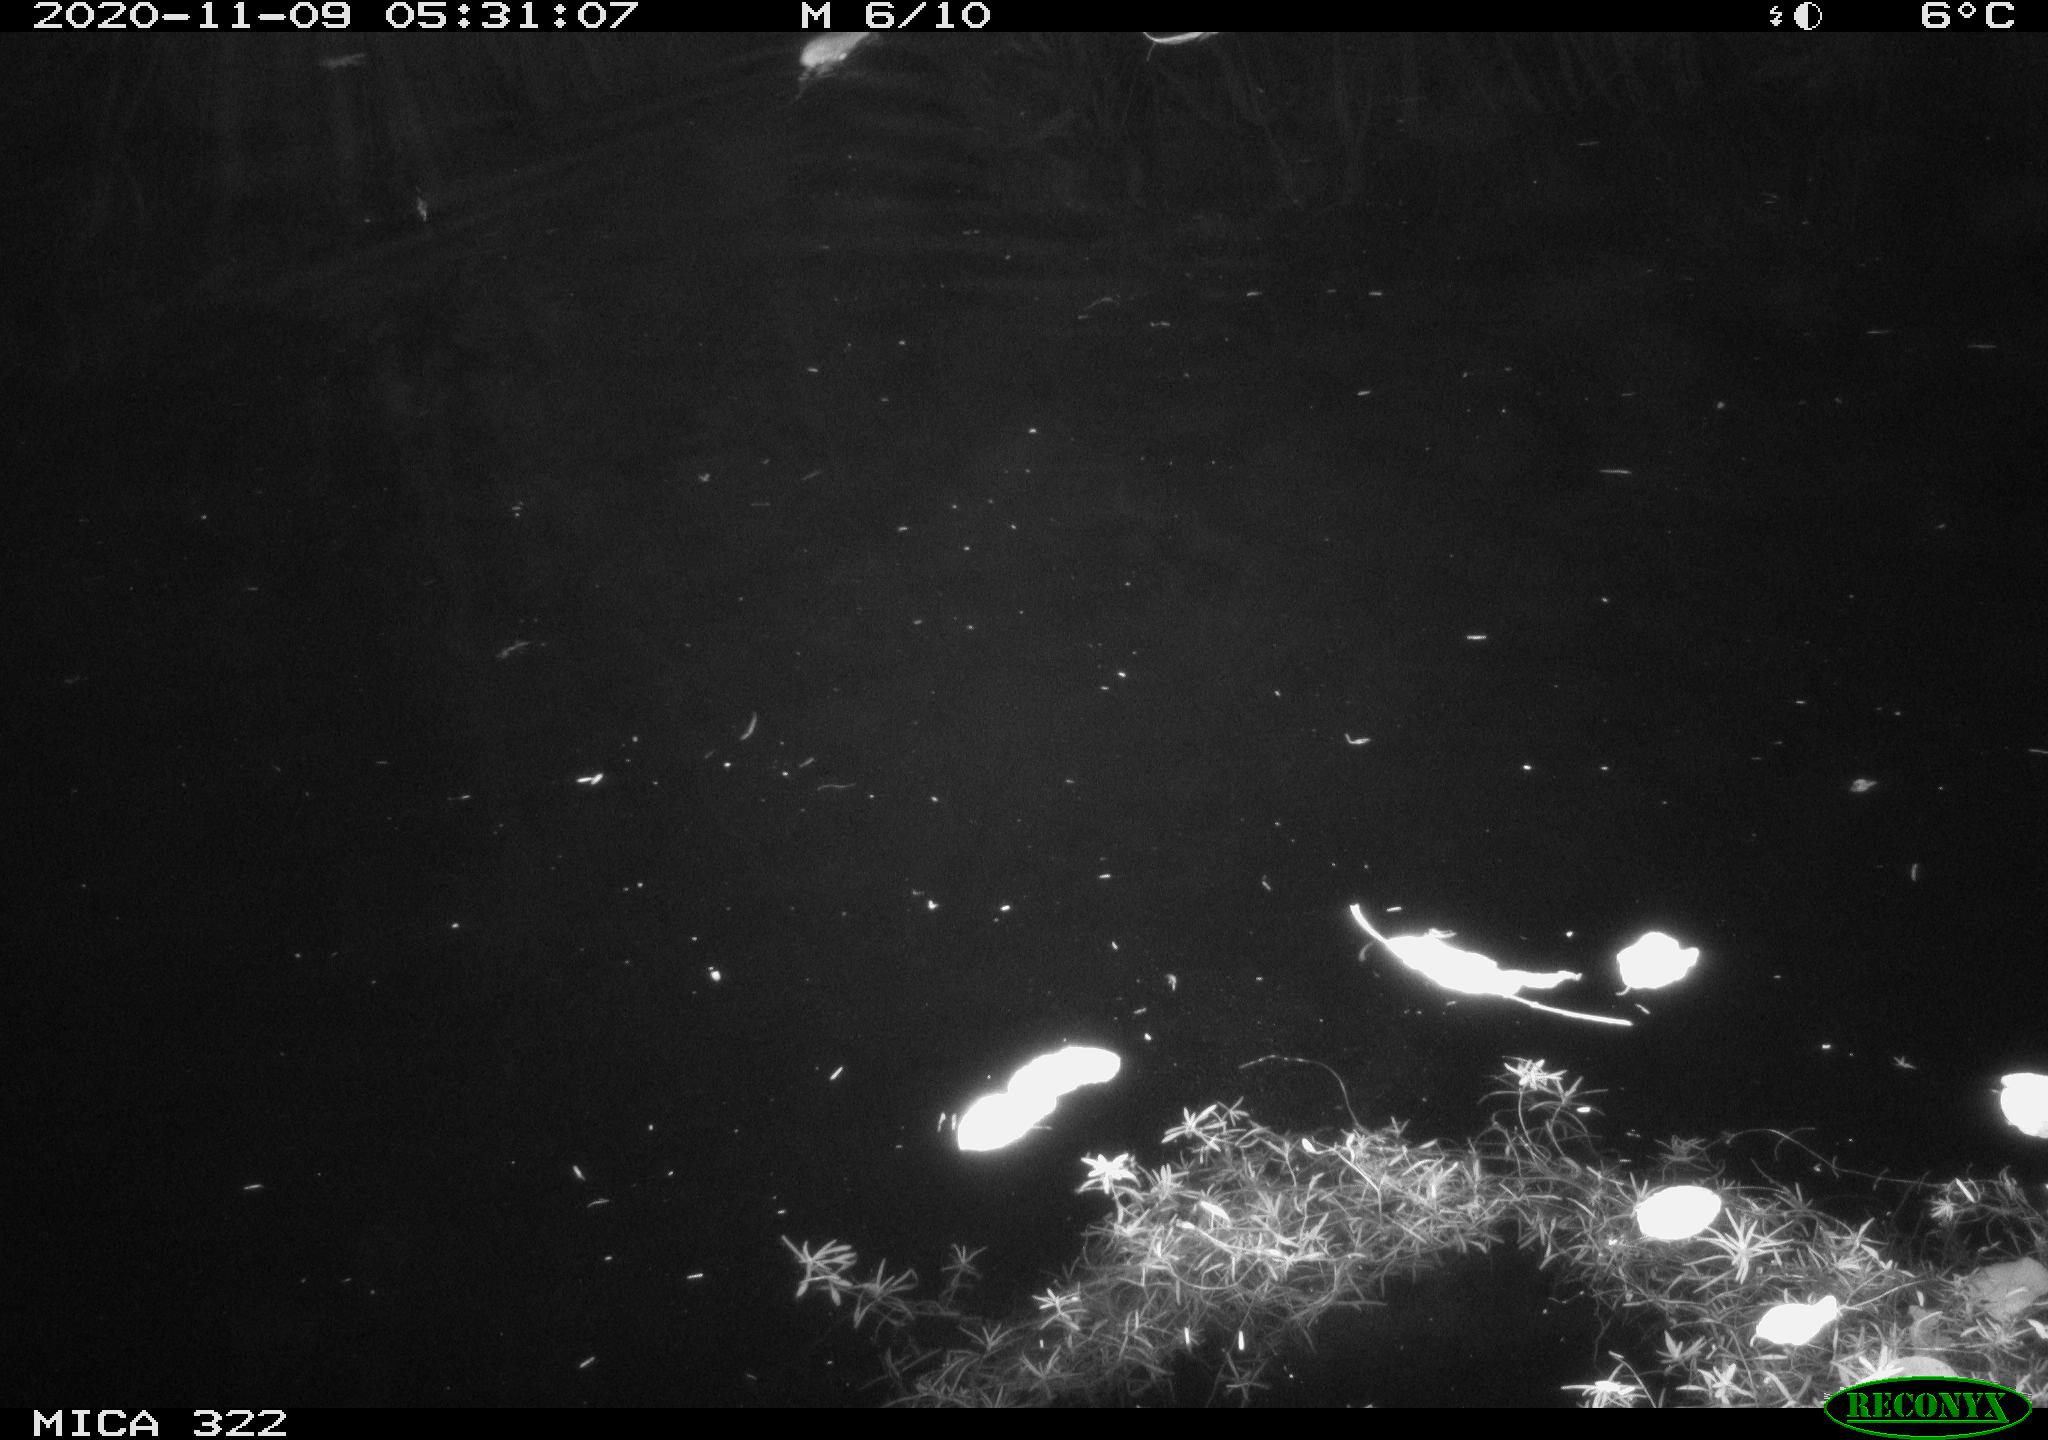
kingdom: Animalia
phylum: Chordata
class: Mammalia
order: Rodentia
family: Muridae
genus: Rattus
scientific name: Rattus norvegicus
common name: Brown rat
